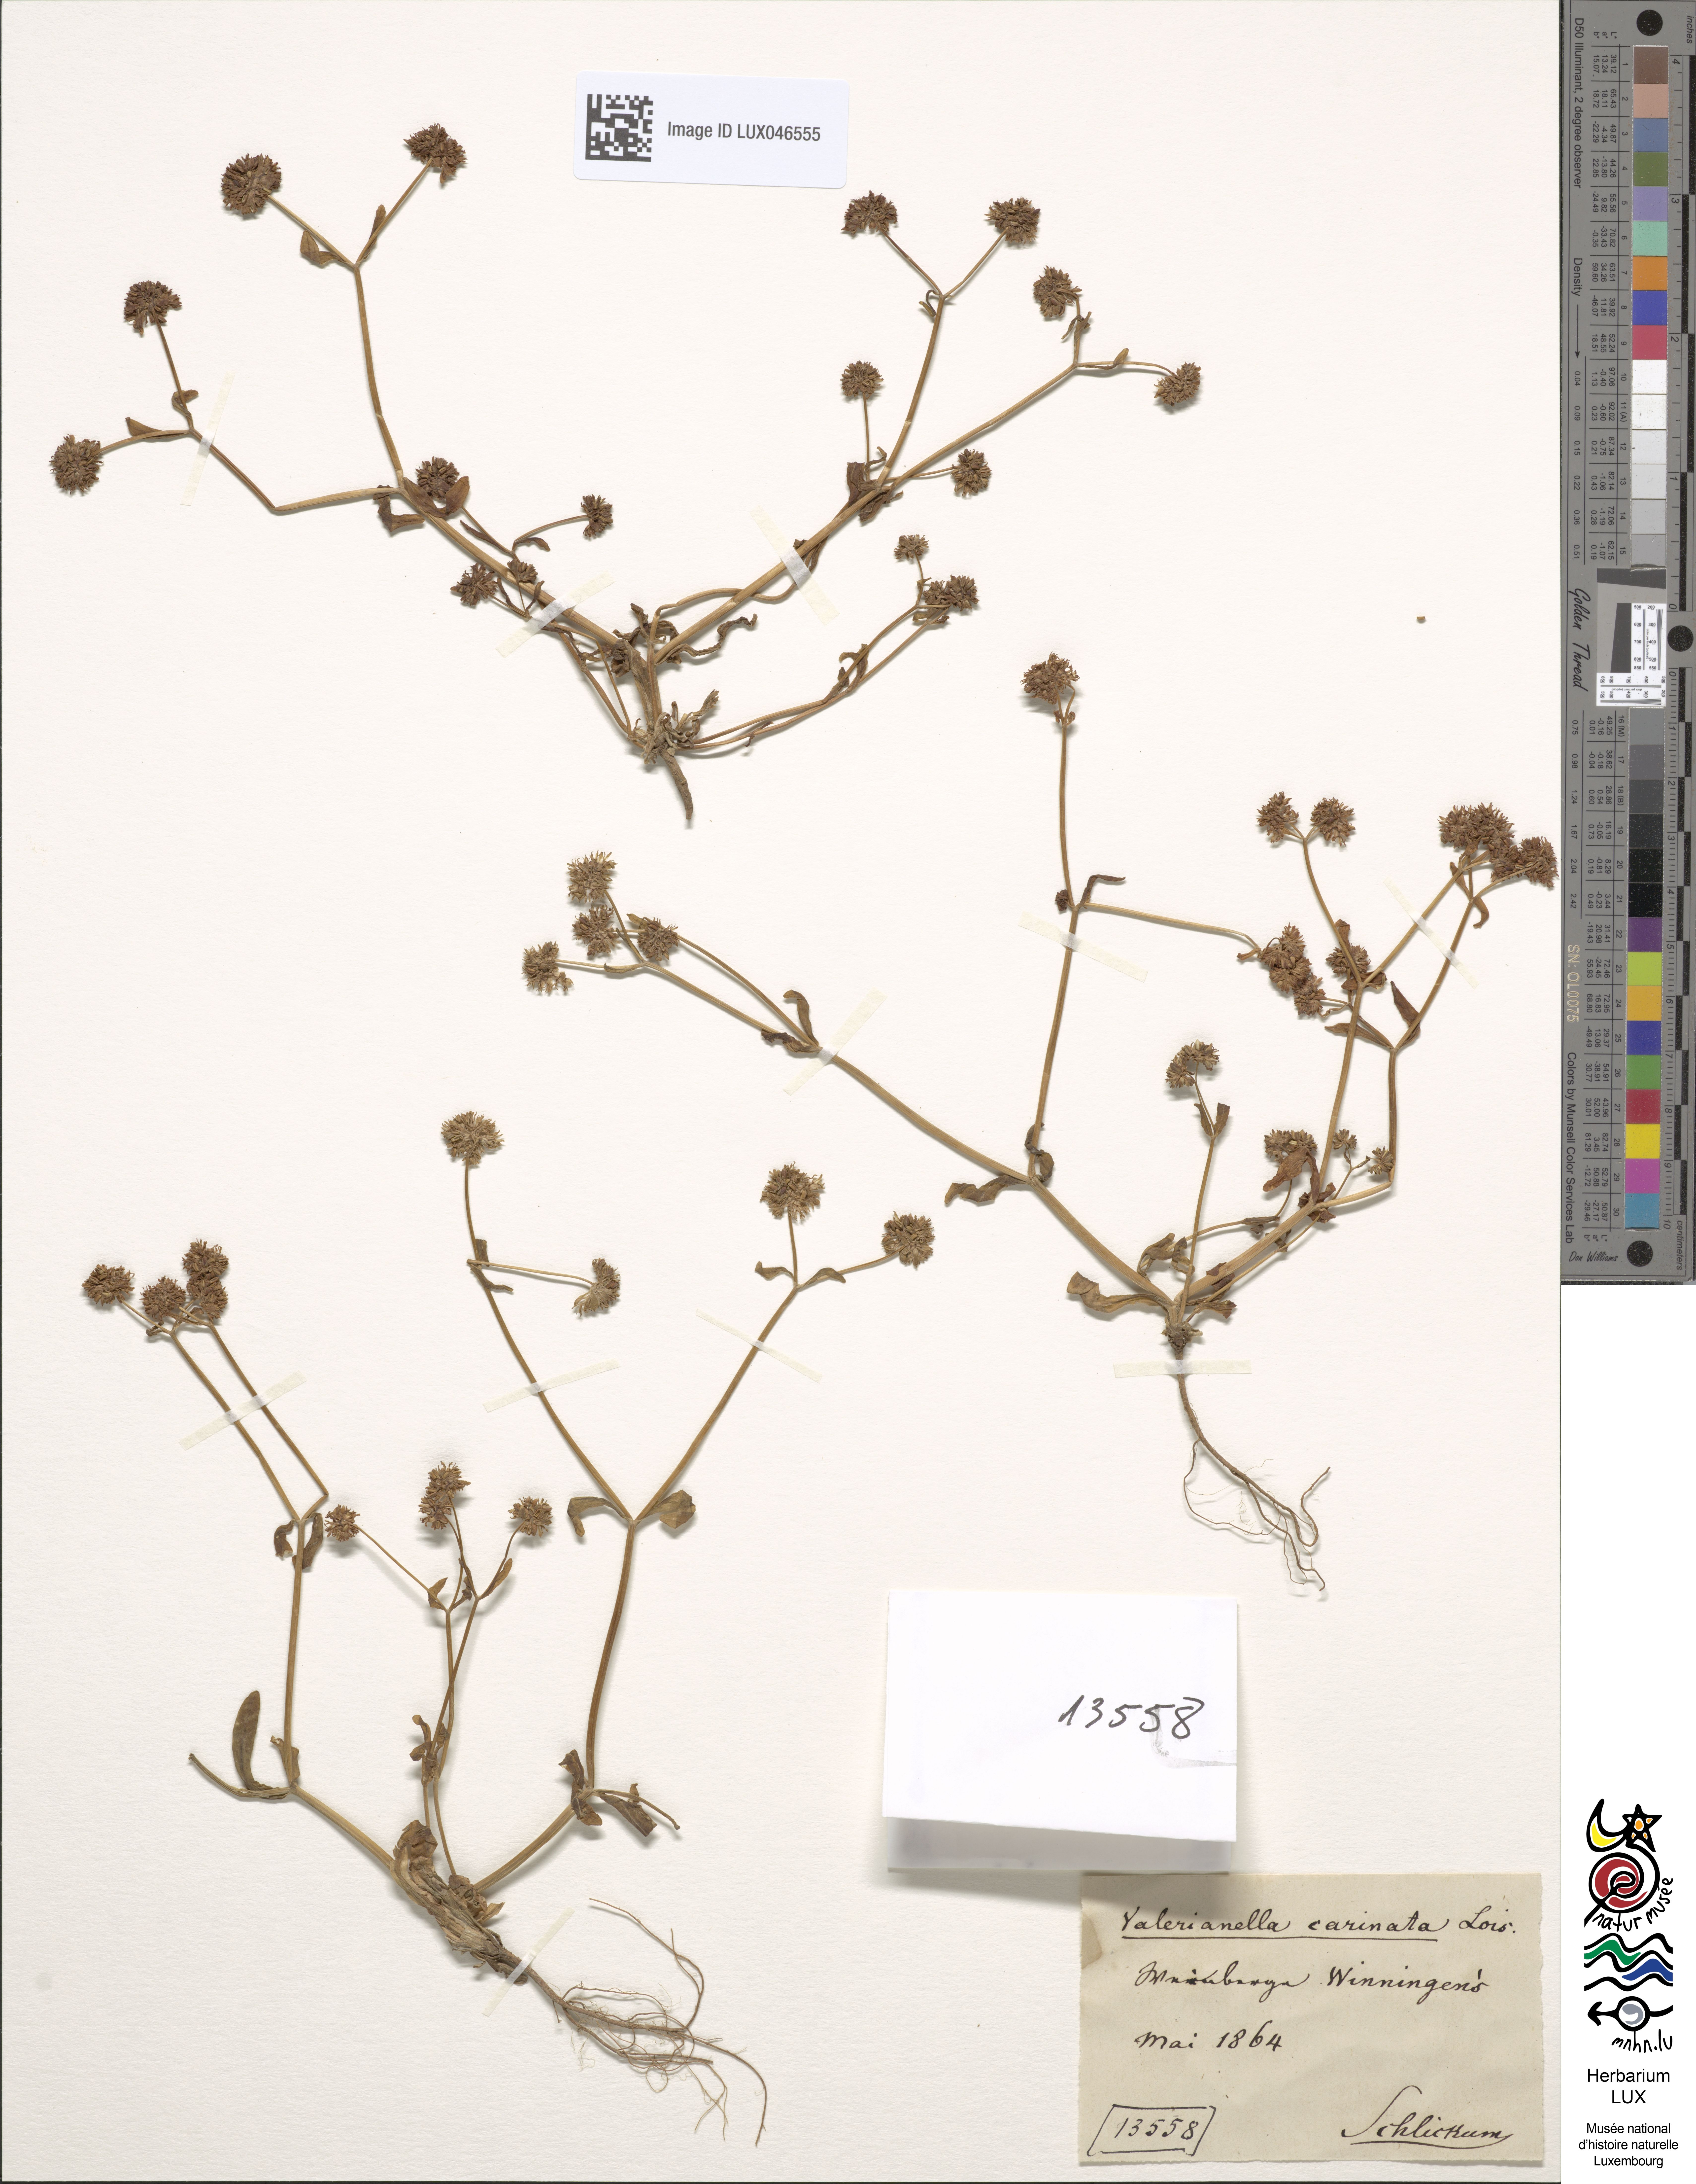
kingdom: Plantae
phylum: Tracheophyta
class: Magnoliopsida
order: Dipsacales
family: Caprifoliaceae
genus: Valerianella
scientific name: Valerianella carinata
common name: Keeled-fruited cornsalad
